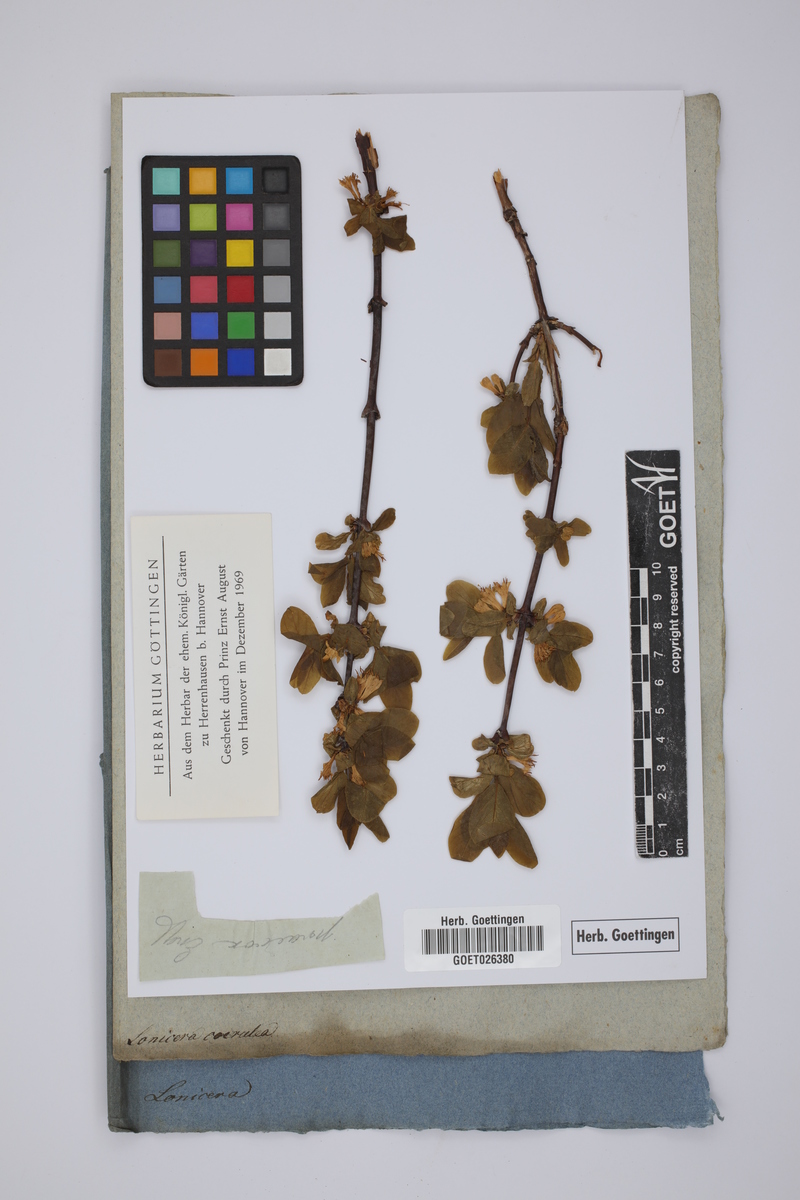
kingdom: Plantae
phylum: Tracheophyta
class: Magnoliopsida
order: Dipsacales
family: Caprifoliaceae
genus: Lonicera
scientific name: Lonicera caerulea
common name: Blue honeysuckle
